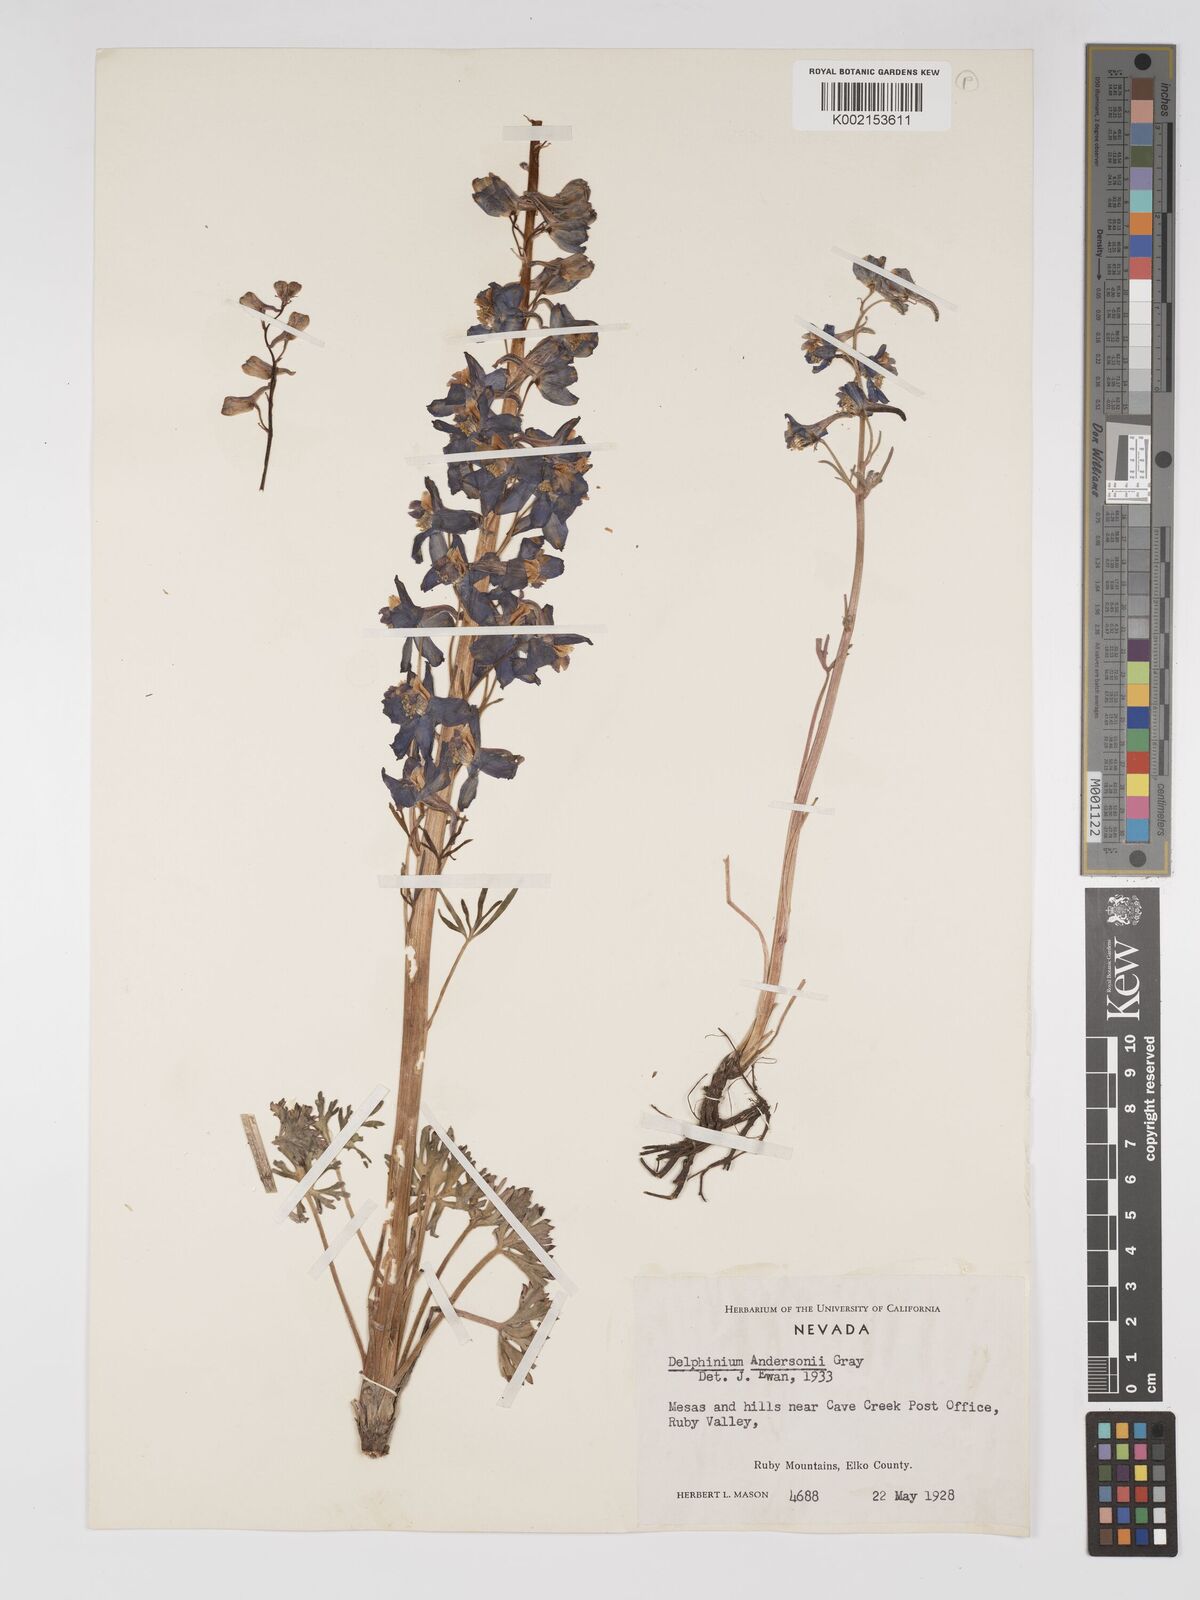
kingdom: Plantae
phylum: Tracheophyta
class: Magnoliopsida
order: Ranunculales
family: Ranunculaceae
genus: Delphinium
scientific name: Delphinium andersonii
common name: Anderson's larkspur
